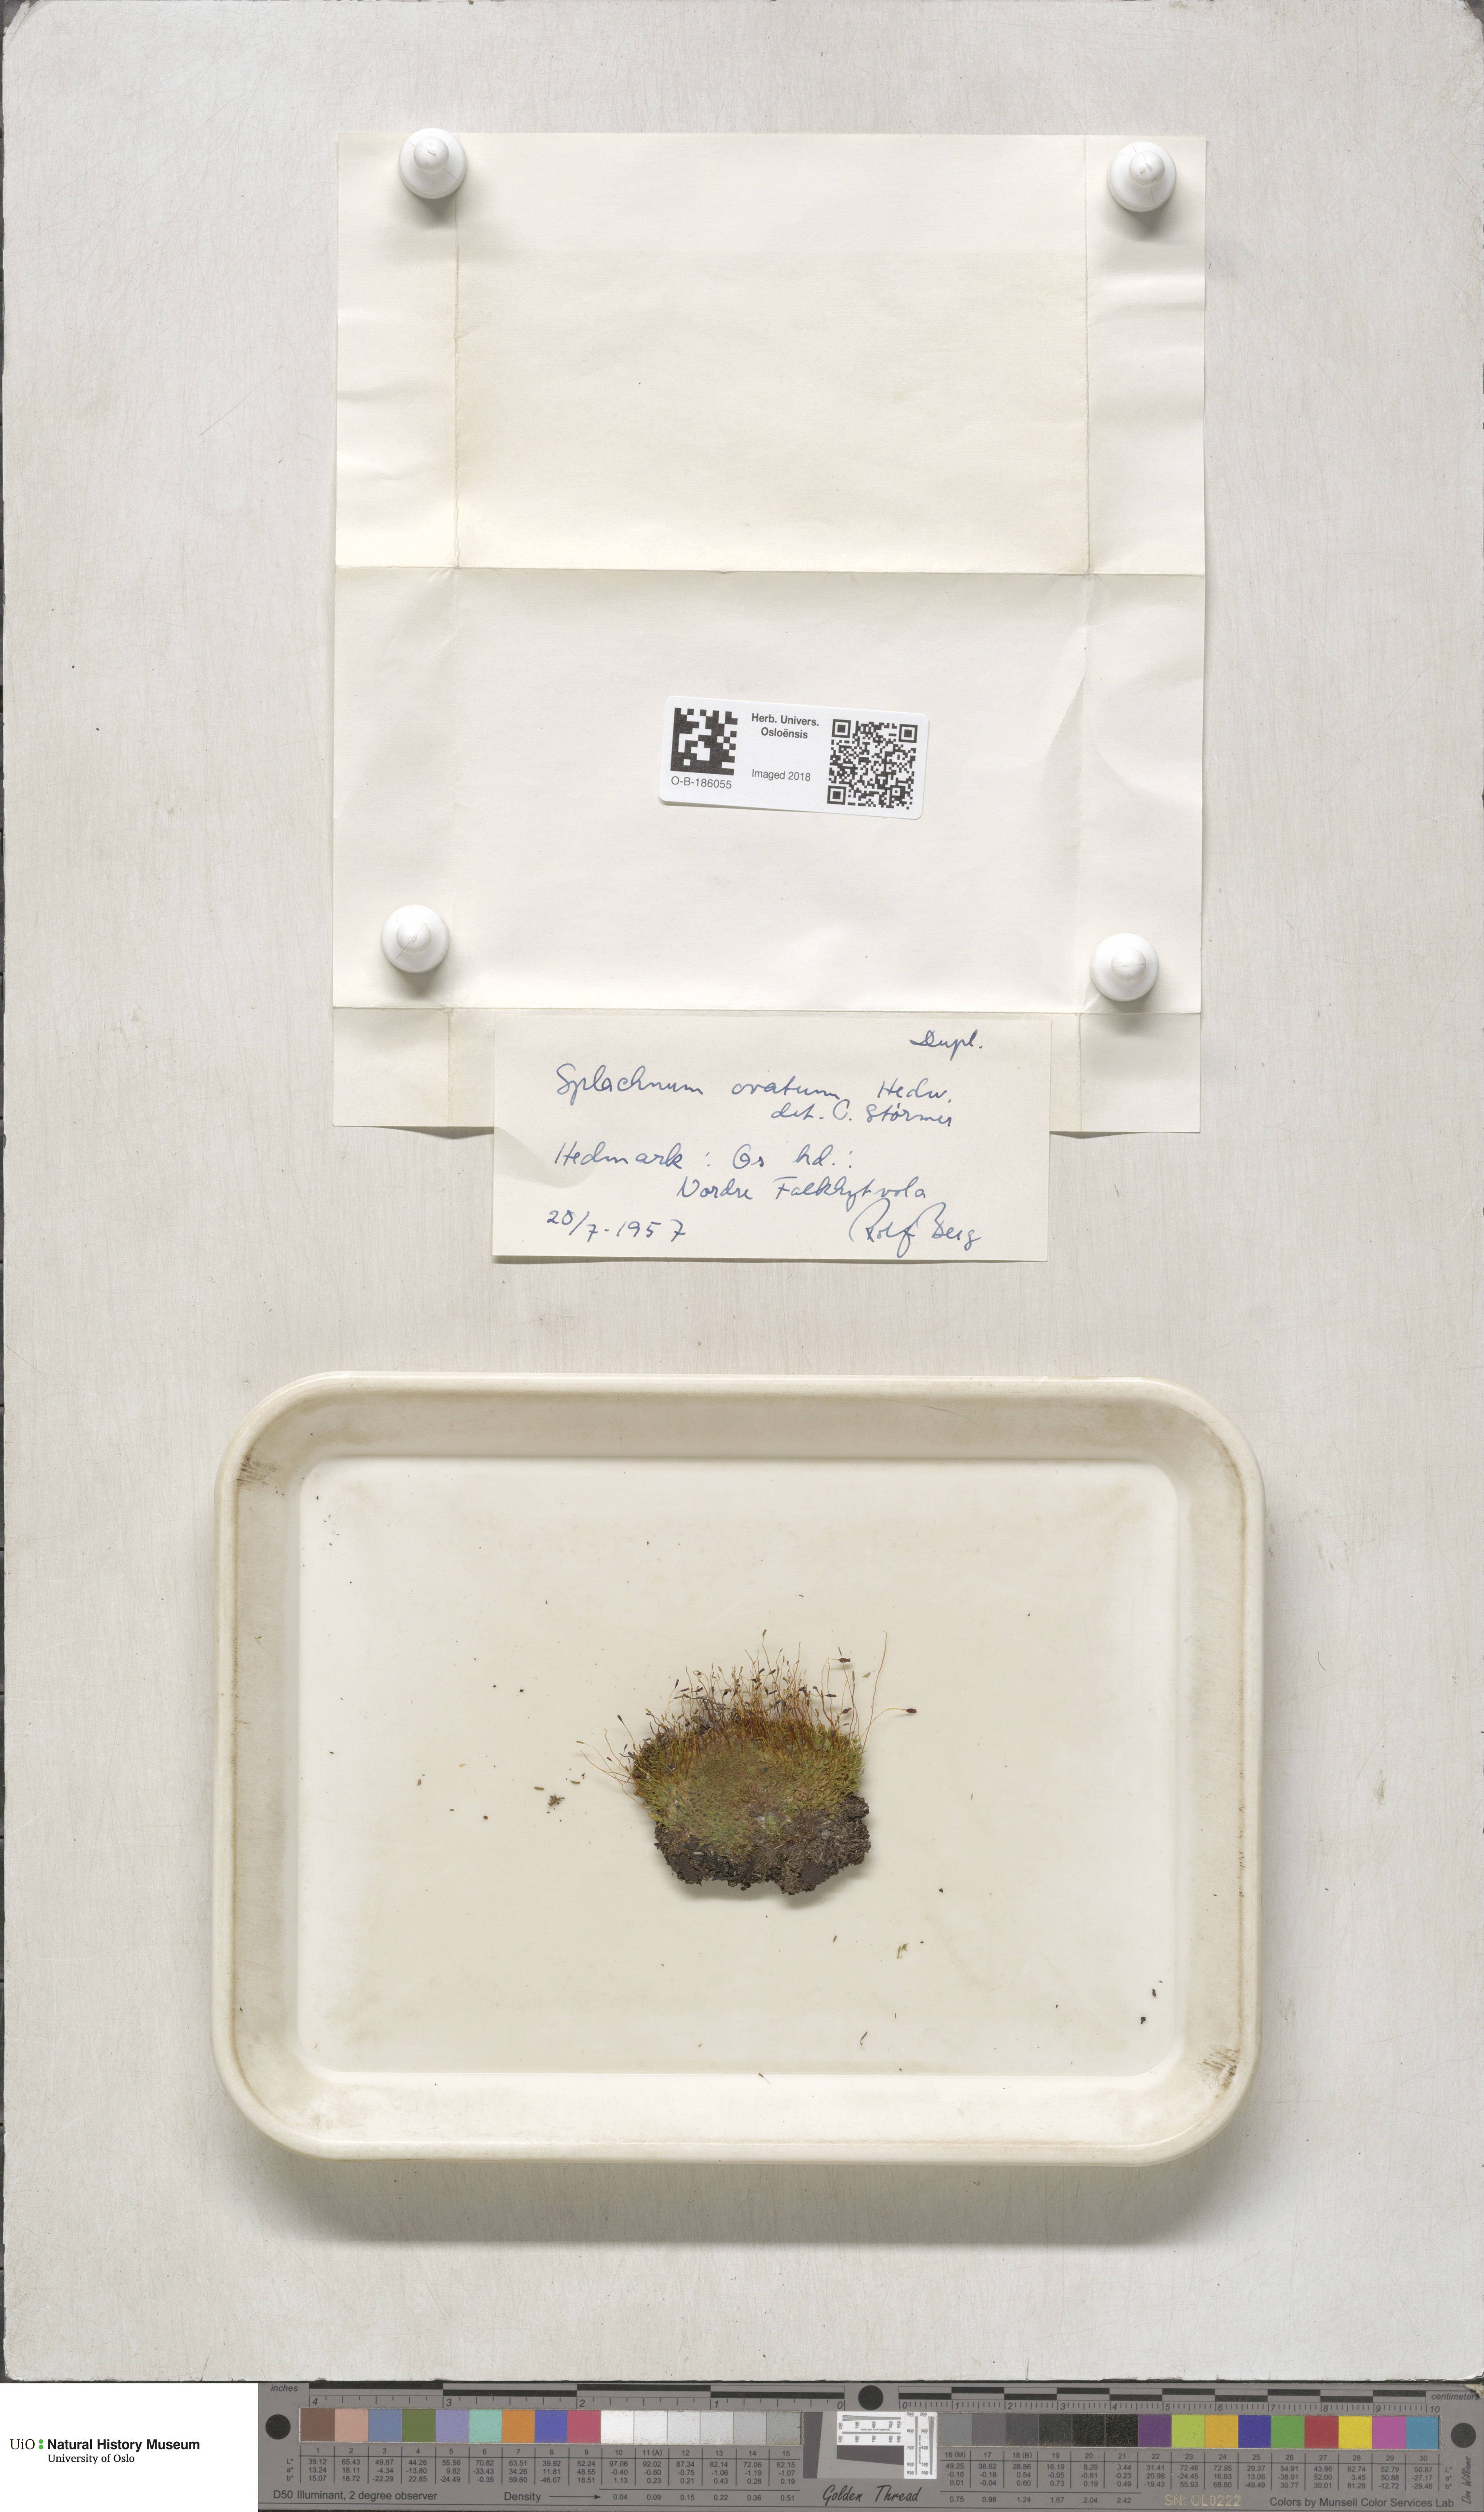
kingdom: Plantae
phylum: Bryophyta
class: Bryopsida
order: Splachnales
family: Splachnaceae
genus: Splachnum
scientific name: Splachnum sphaericum
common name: Round-fruited dung moss
